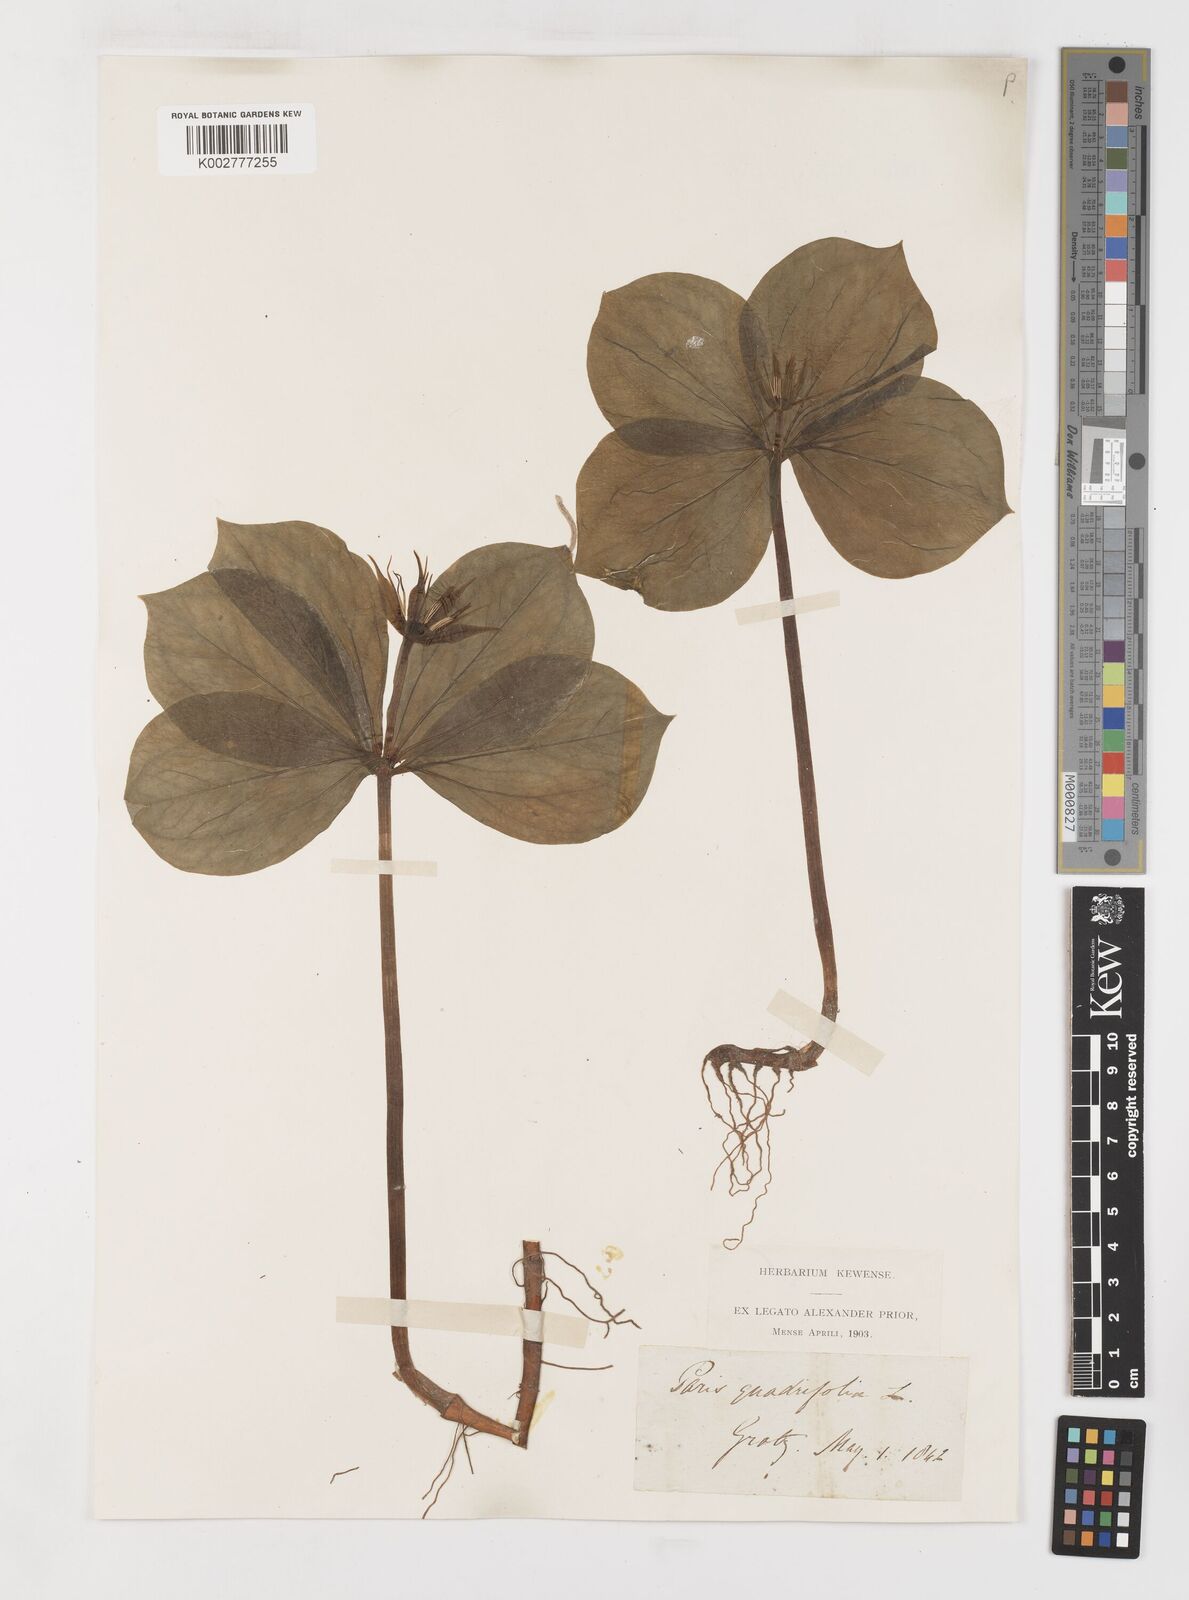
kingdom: Plantae
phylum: Tracheophyta
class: Liliopsida
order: Liliales
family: Melanthiaceae
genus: Paris
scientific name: Paris
